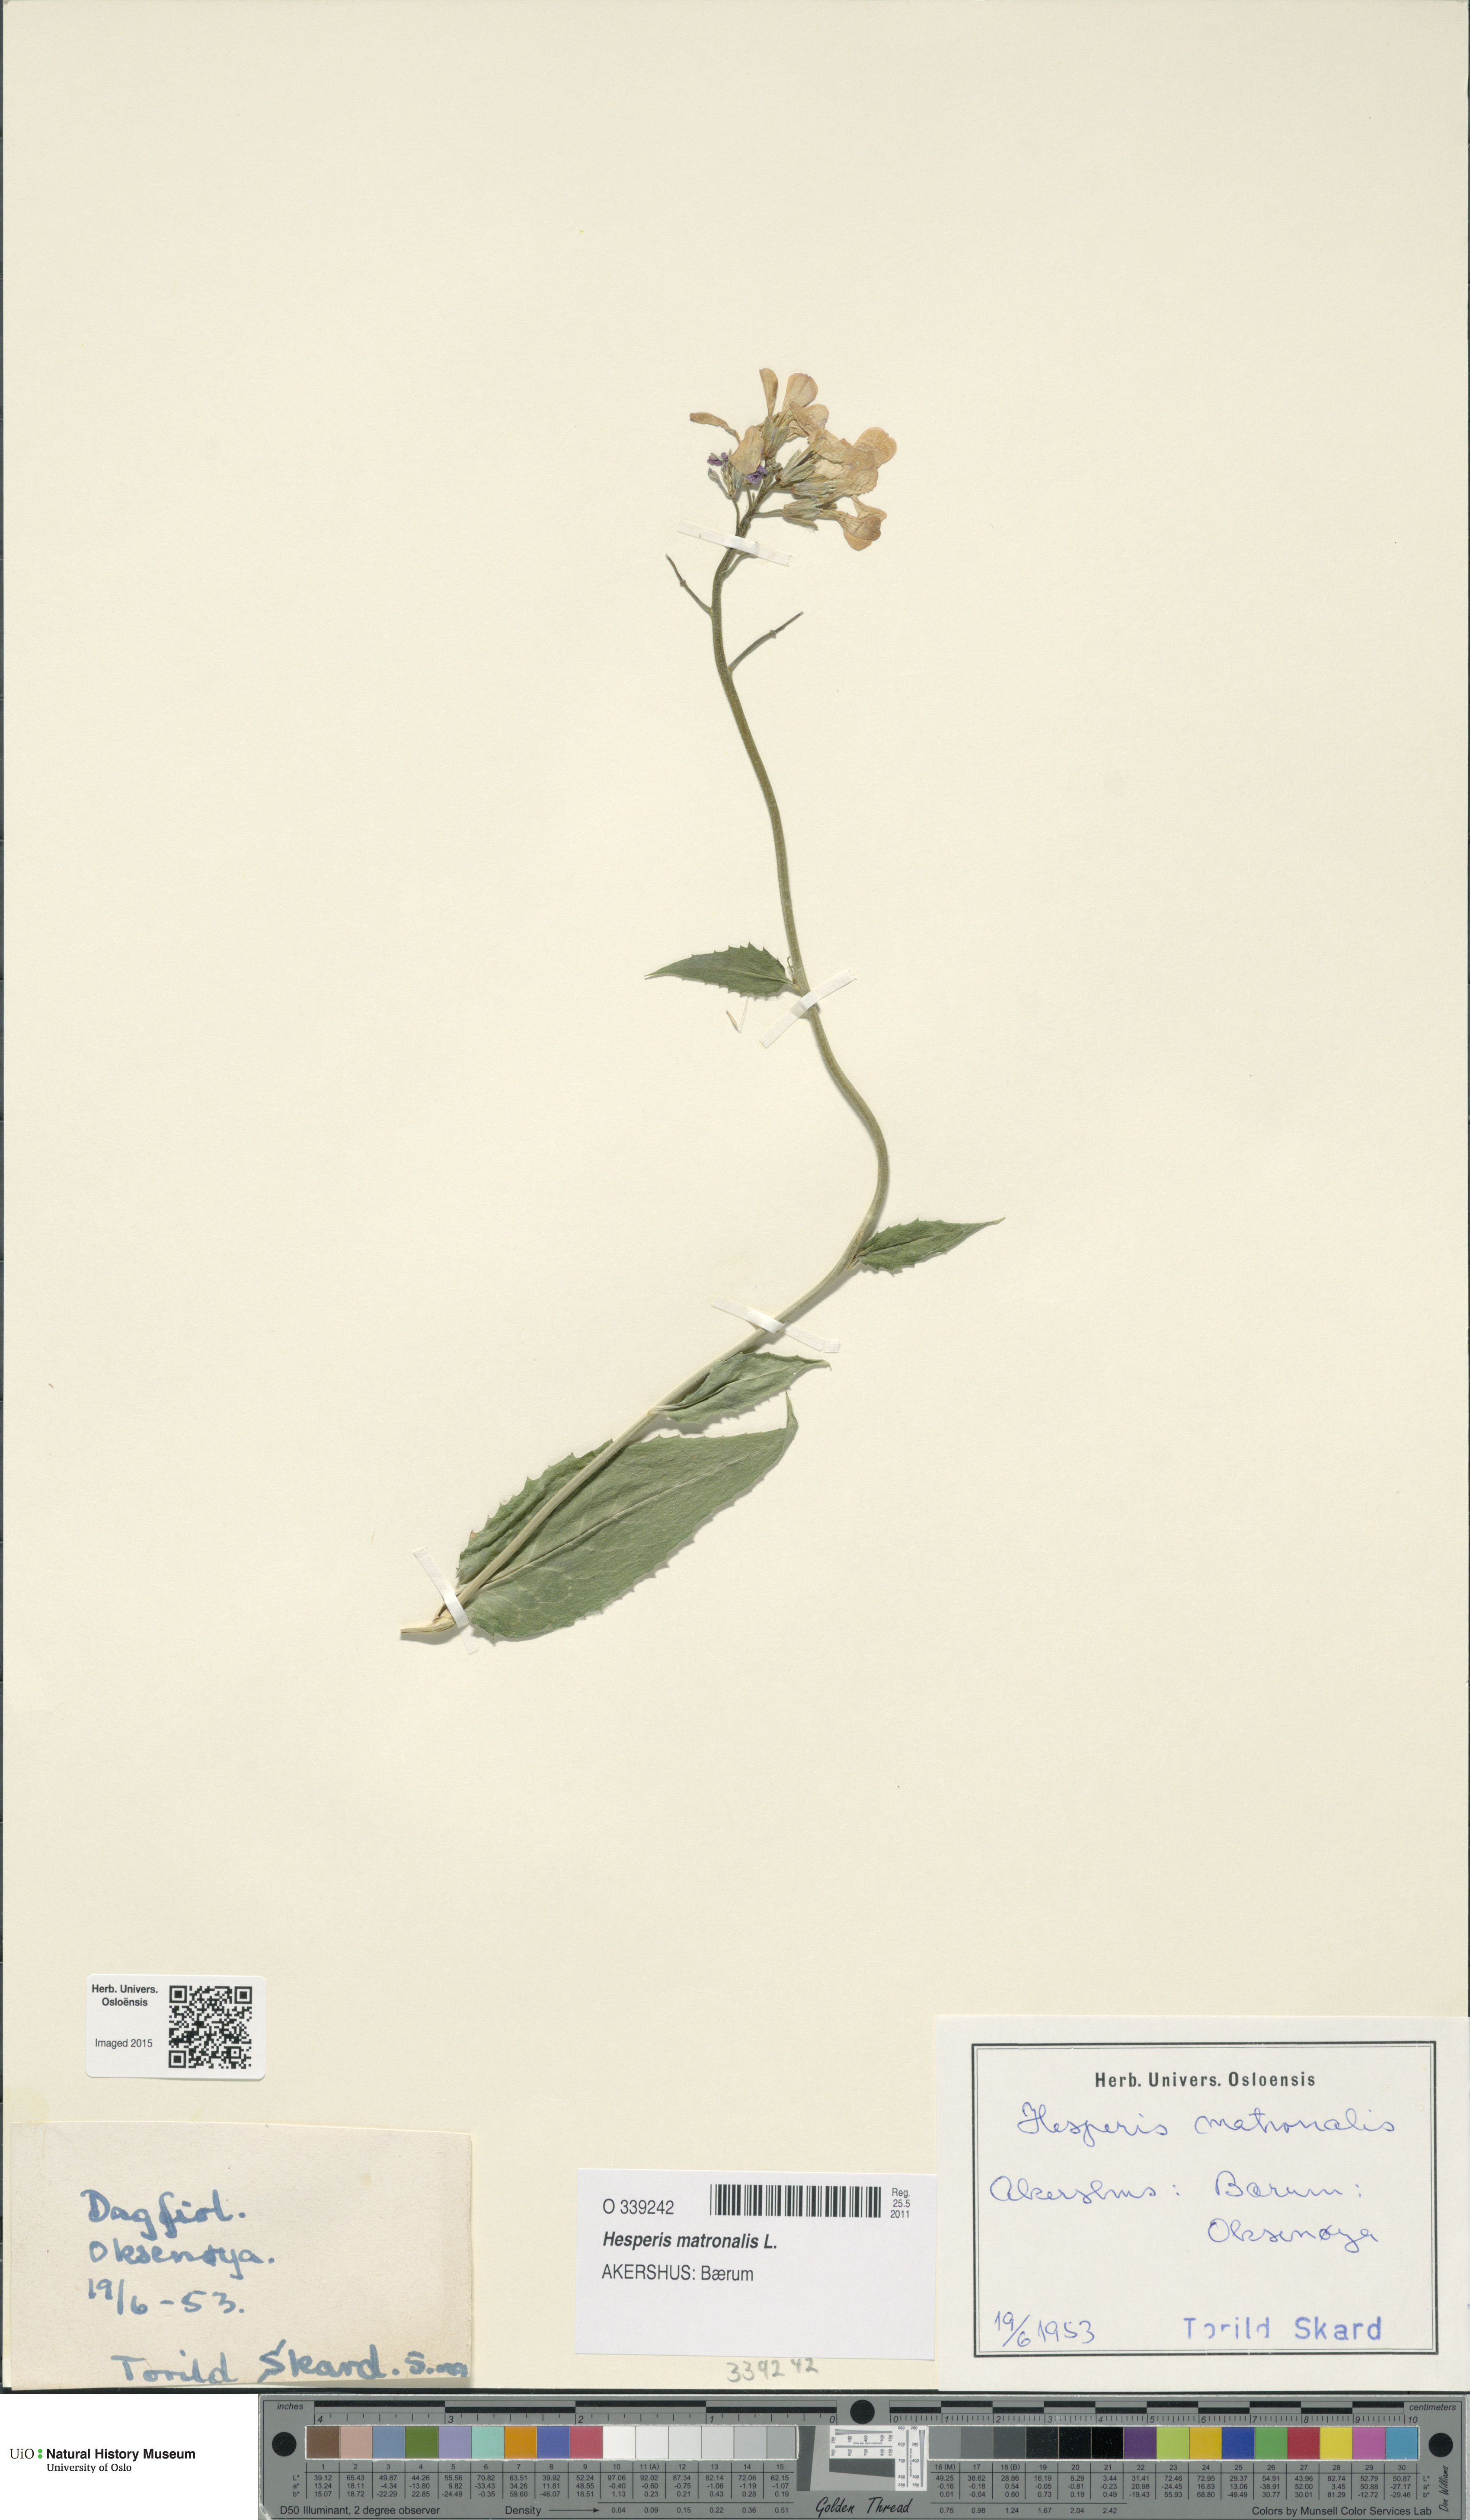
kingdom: Plantae
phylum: Tracheophyta
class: Magnoliopsida
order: Brassicales
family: Brassicaceae
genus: Hesperis
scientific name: Hesperis matronalis
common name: Dame's-violet
